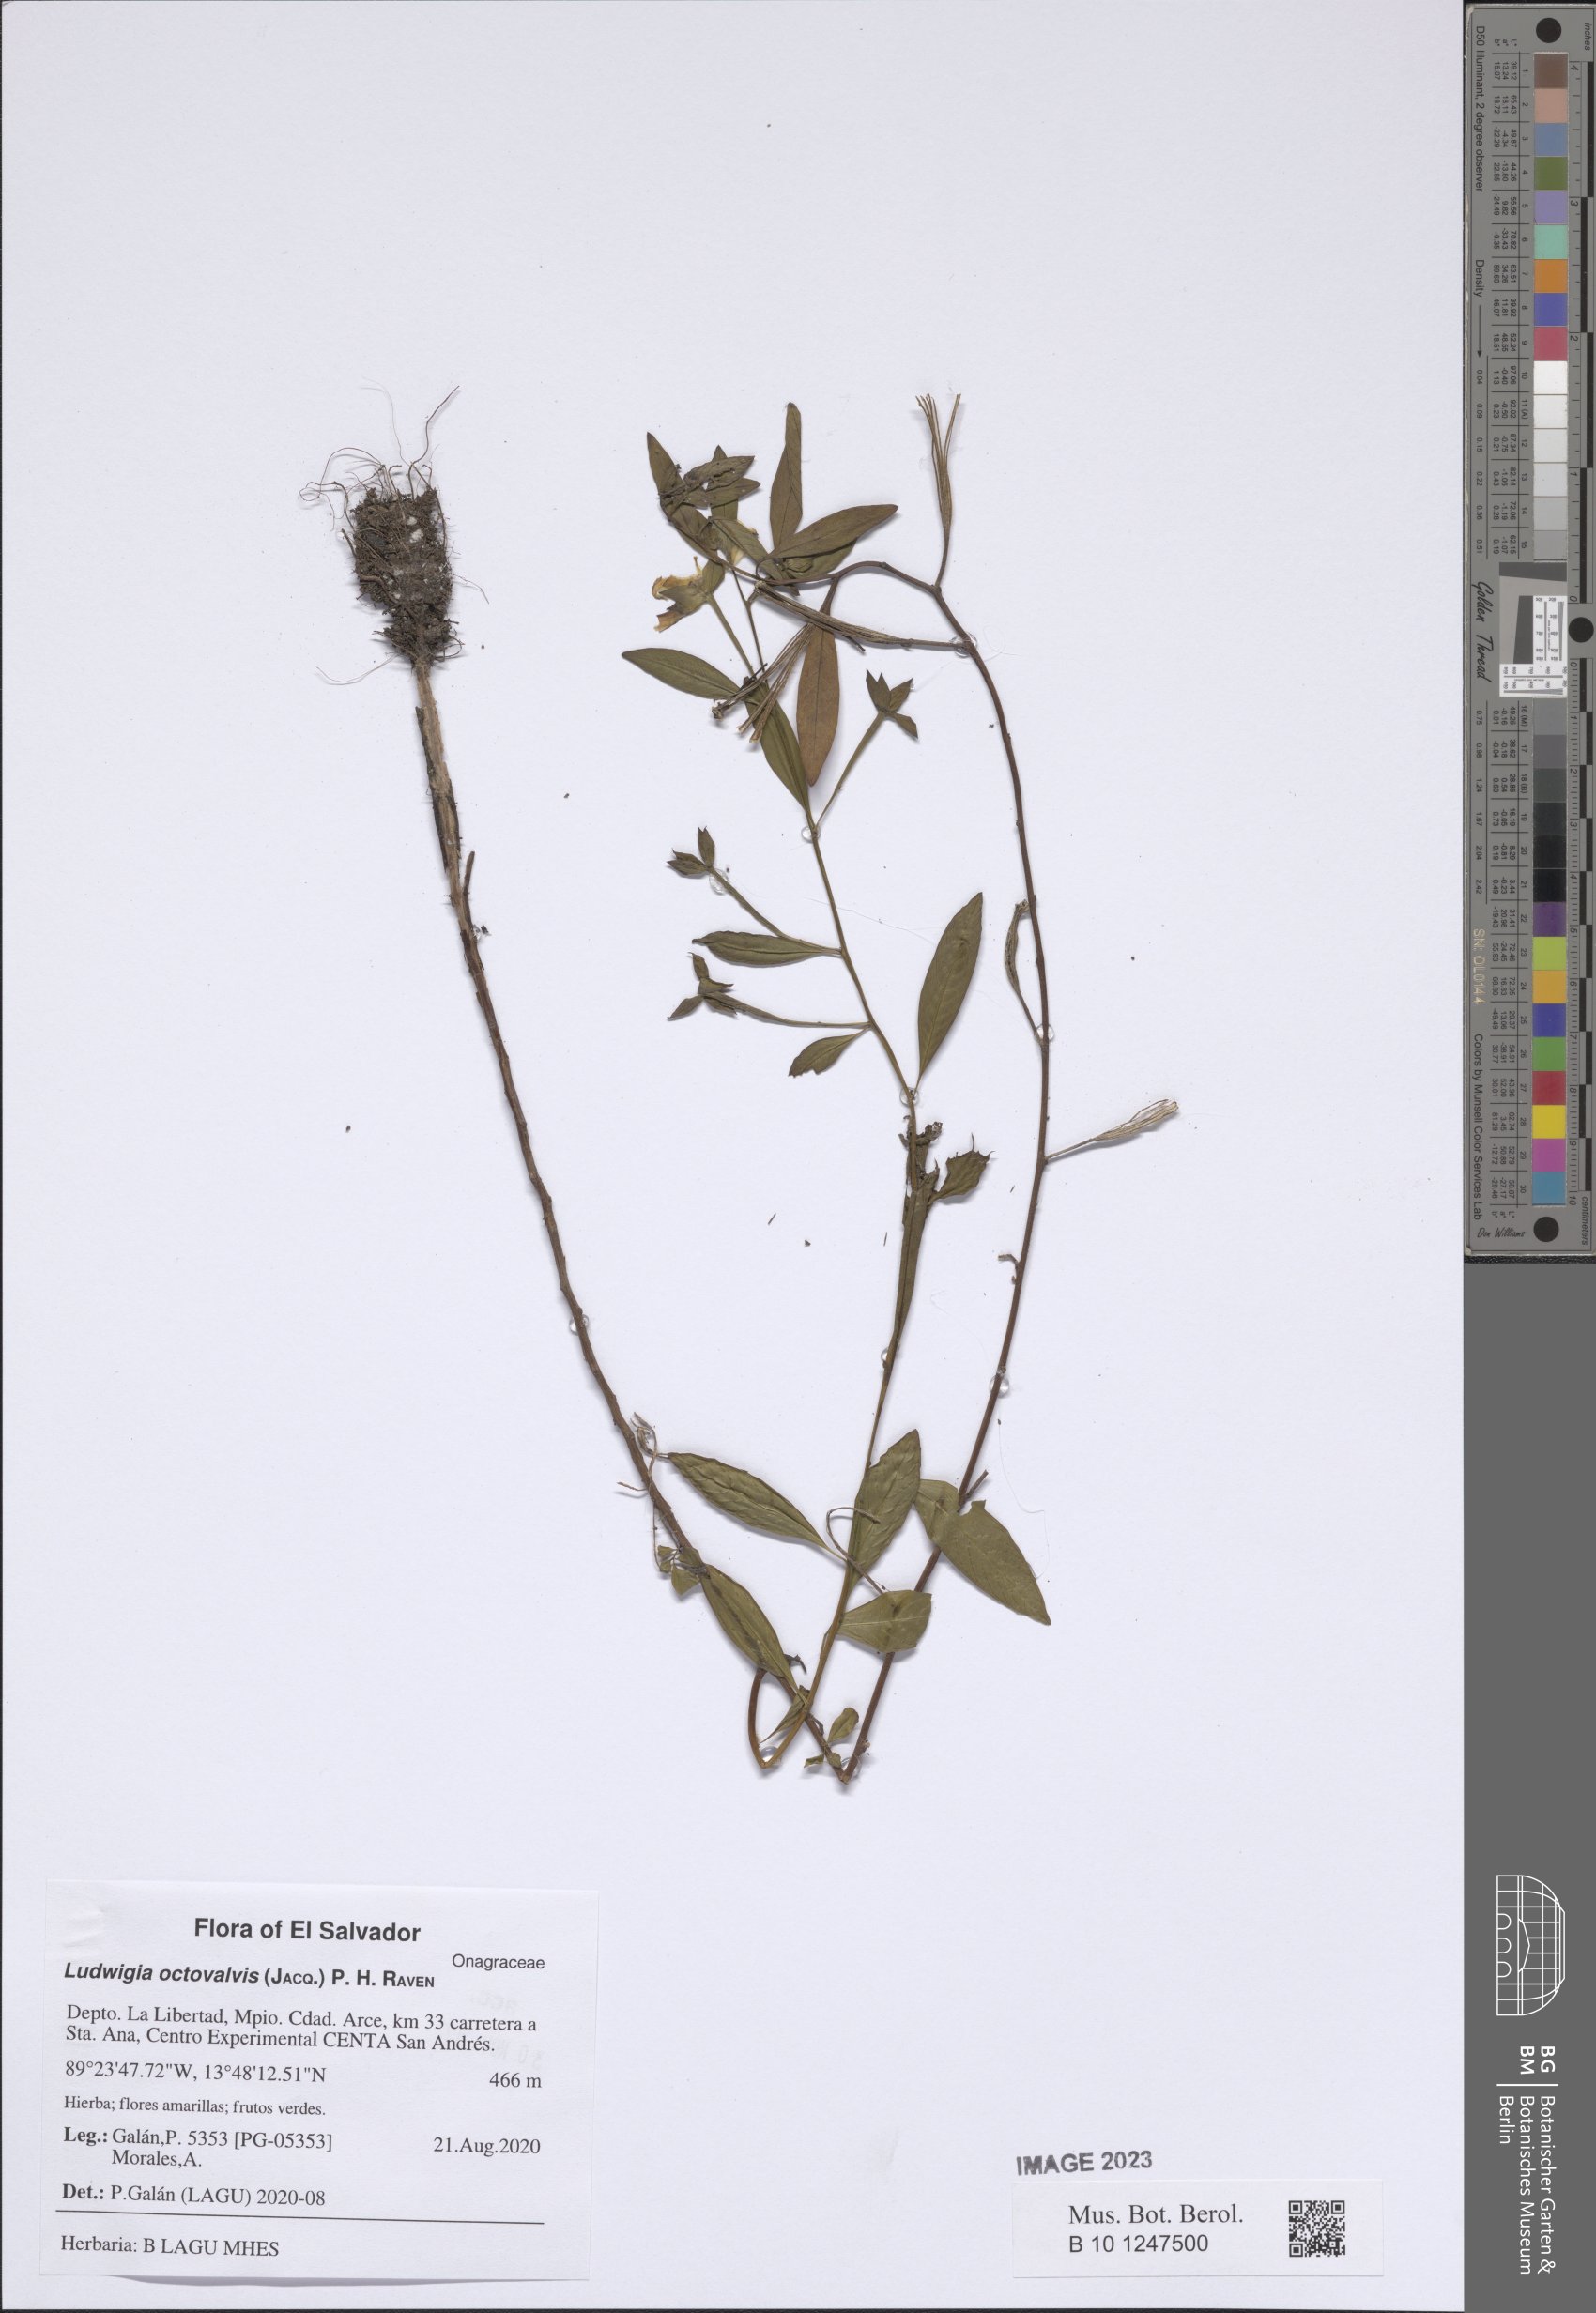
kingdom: Plantae
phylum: Tracheophyta
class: Magnoliopsida
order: Myrtales
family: Onagraceae
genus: Ludwigia
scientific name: Ludwigia octovalvis
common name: Water-primrose
